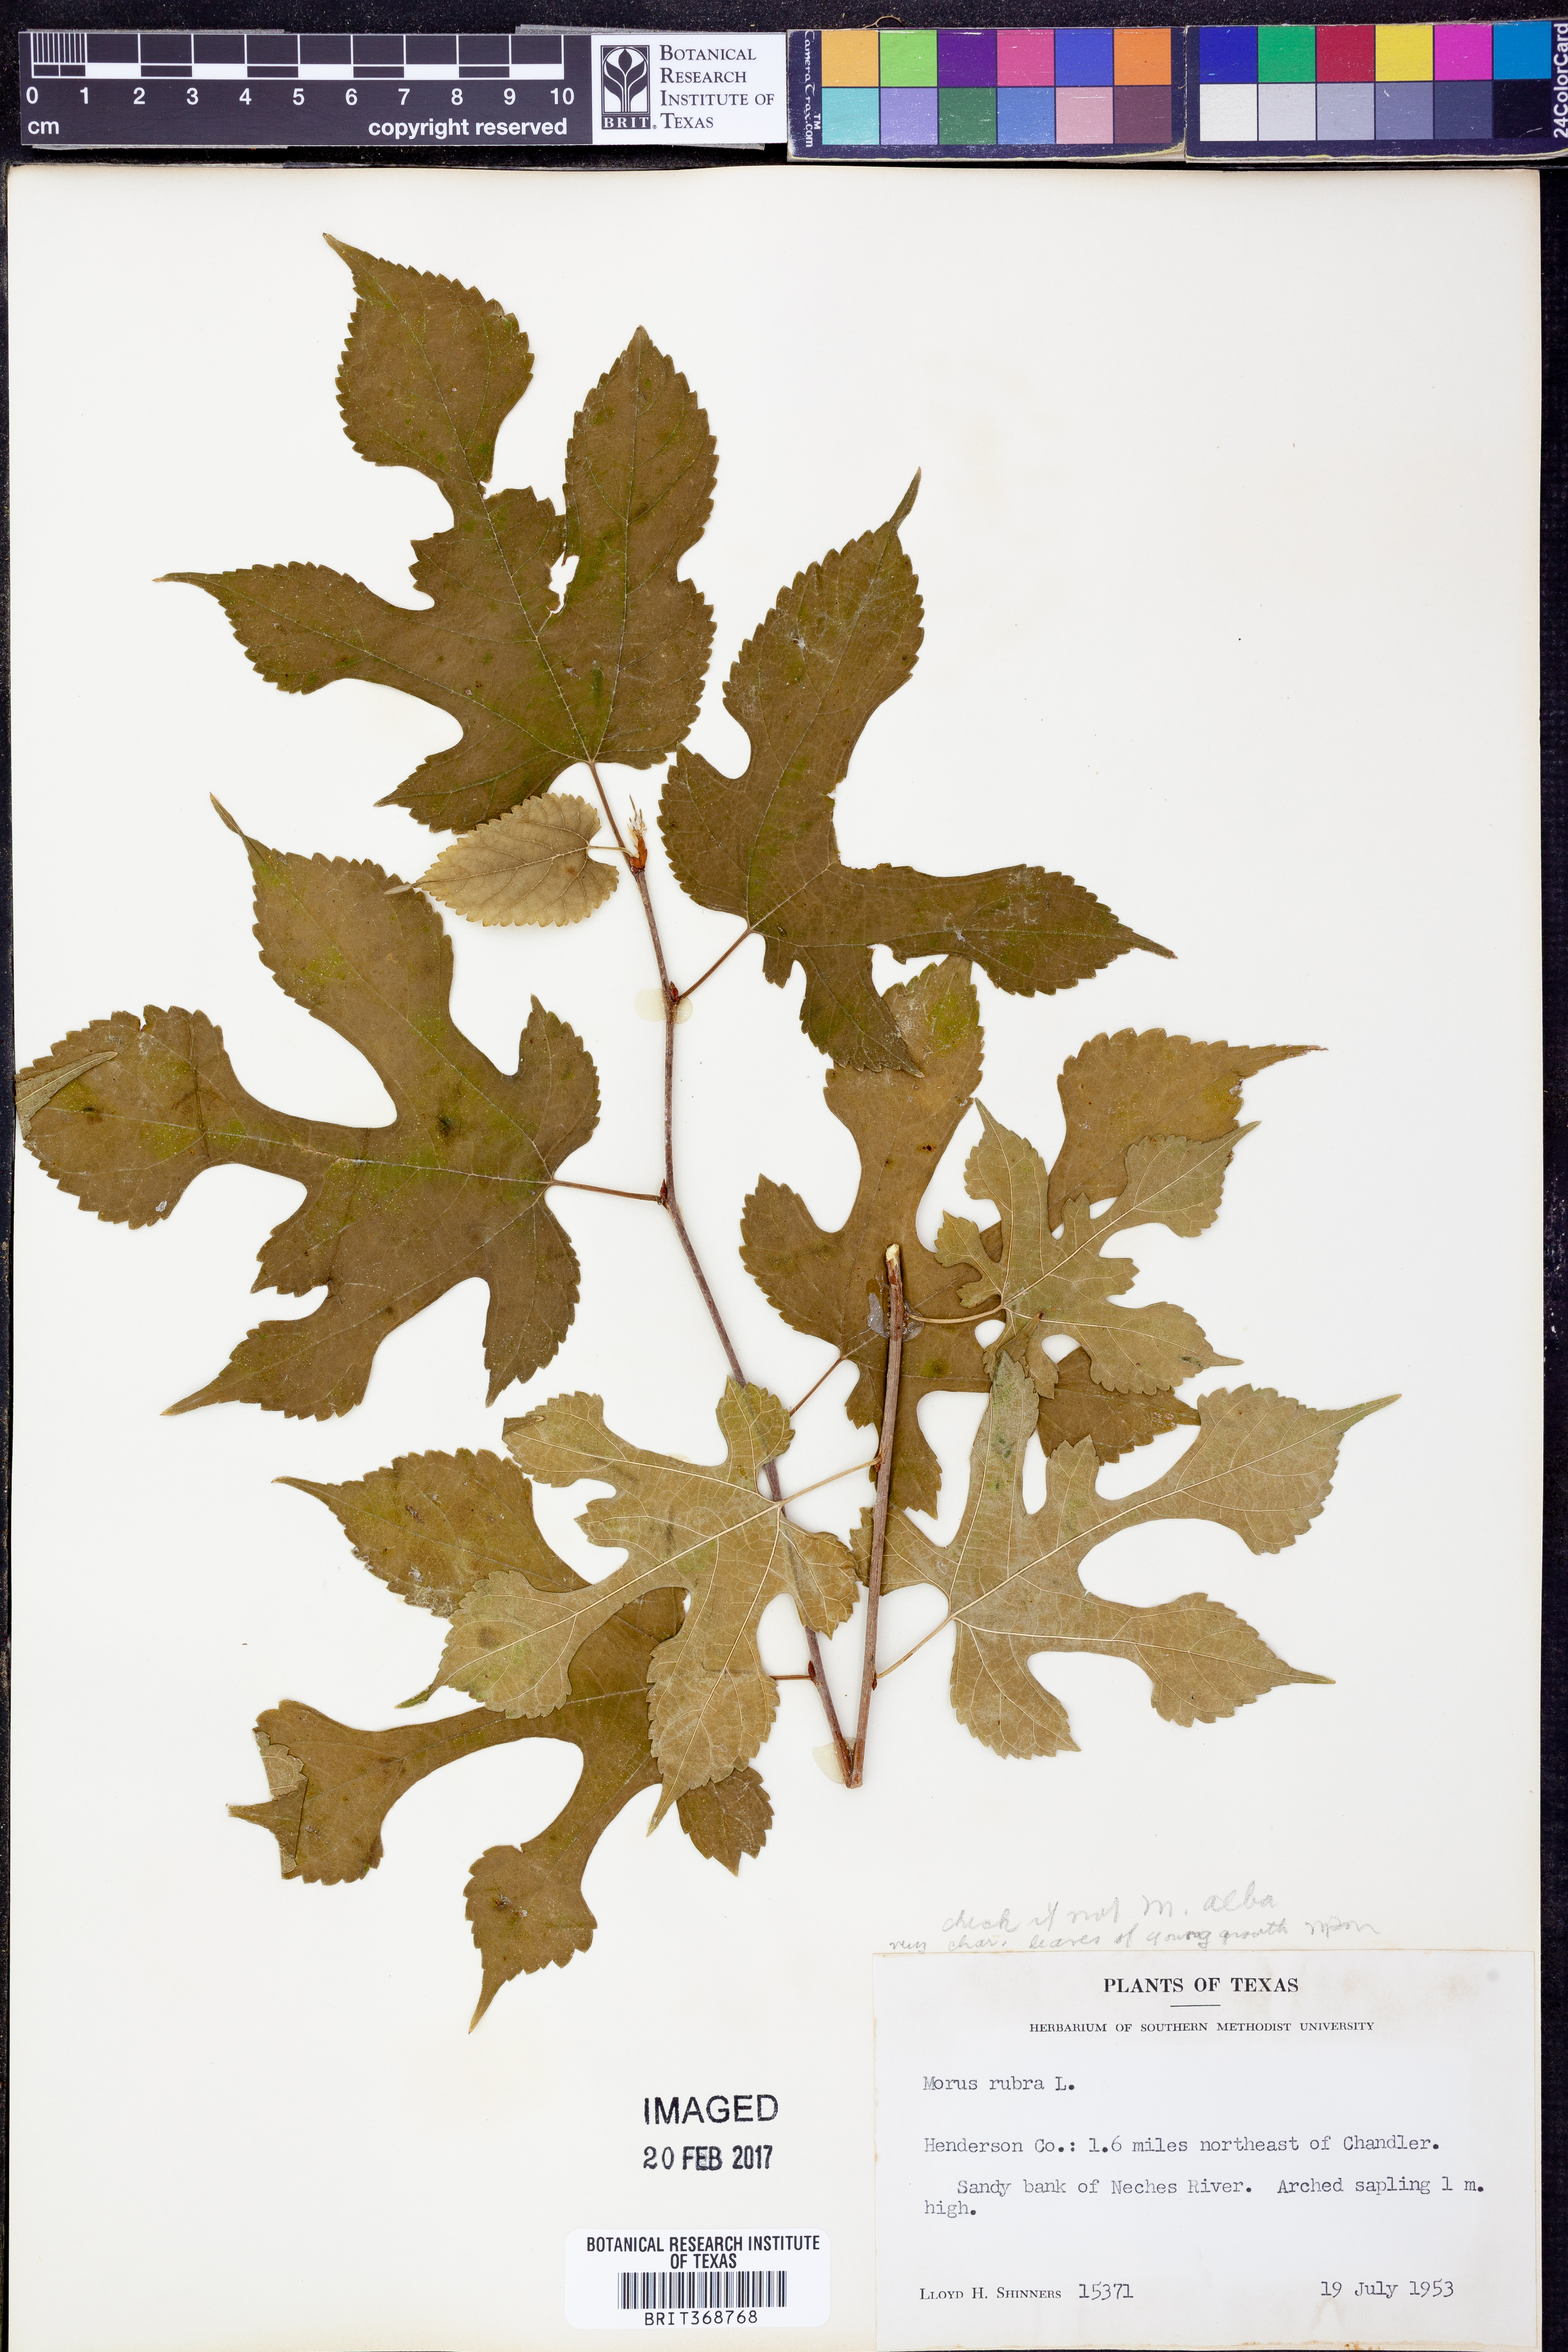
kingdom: Plantae
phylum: Tracheophyta
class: Magnoliopsida
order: Rosales
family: Moraceae
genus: Morus
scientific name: Morus rubra
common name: Red mulberry
